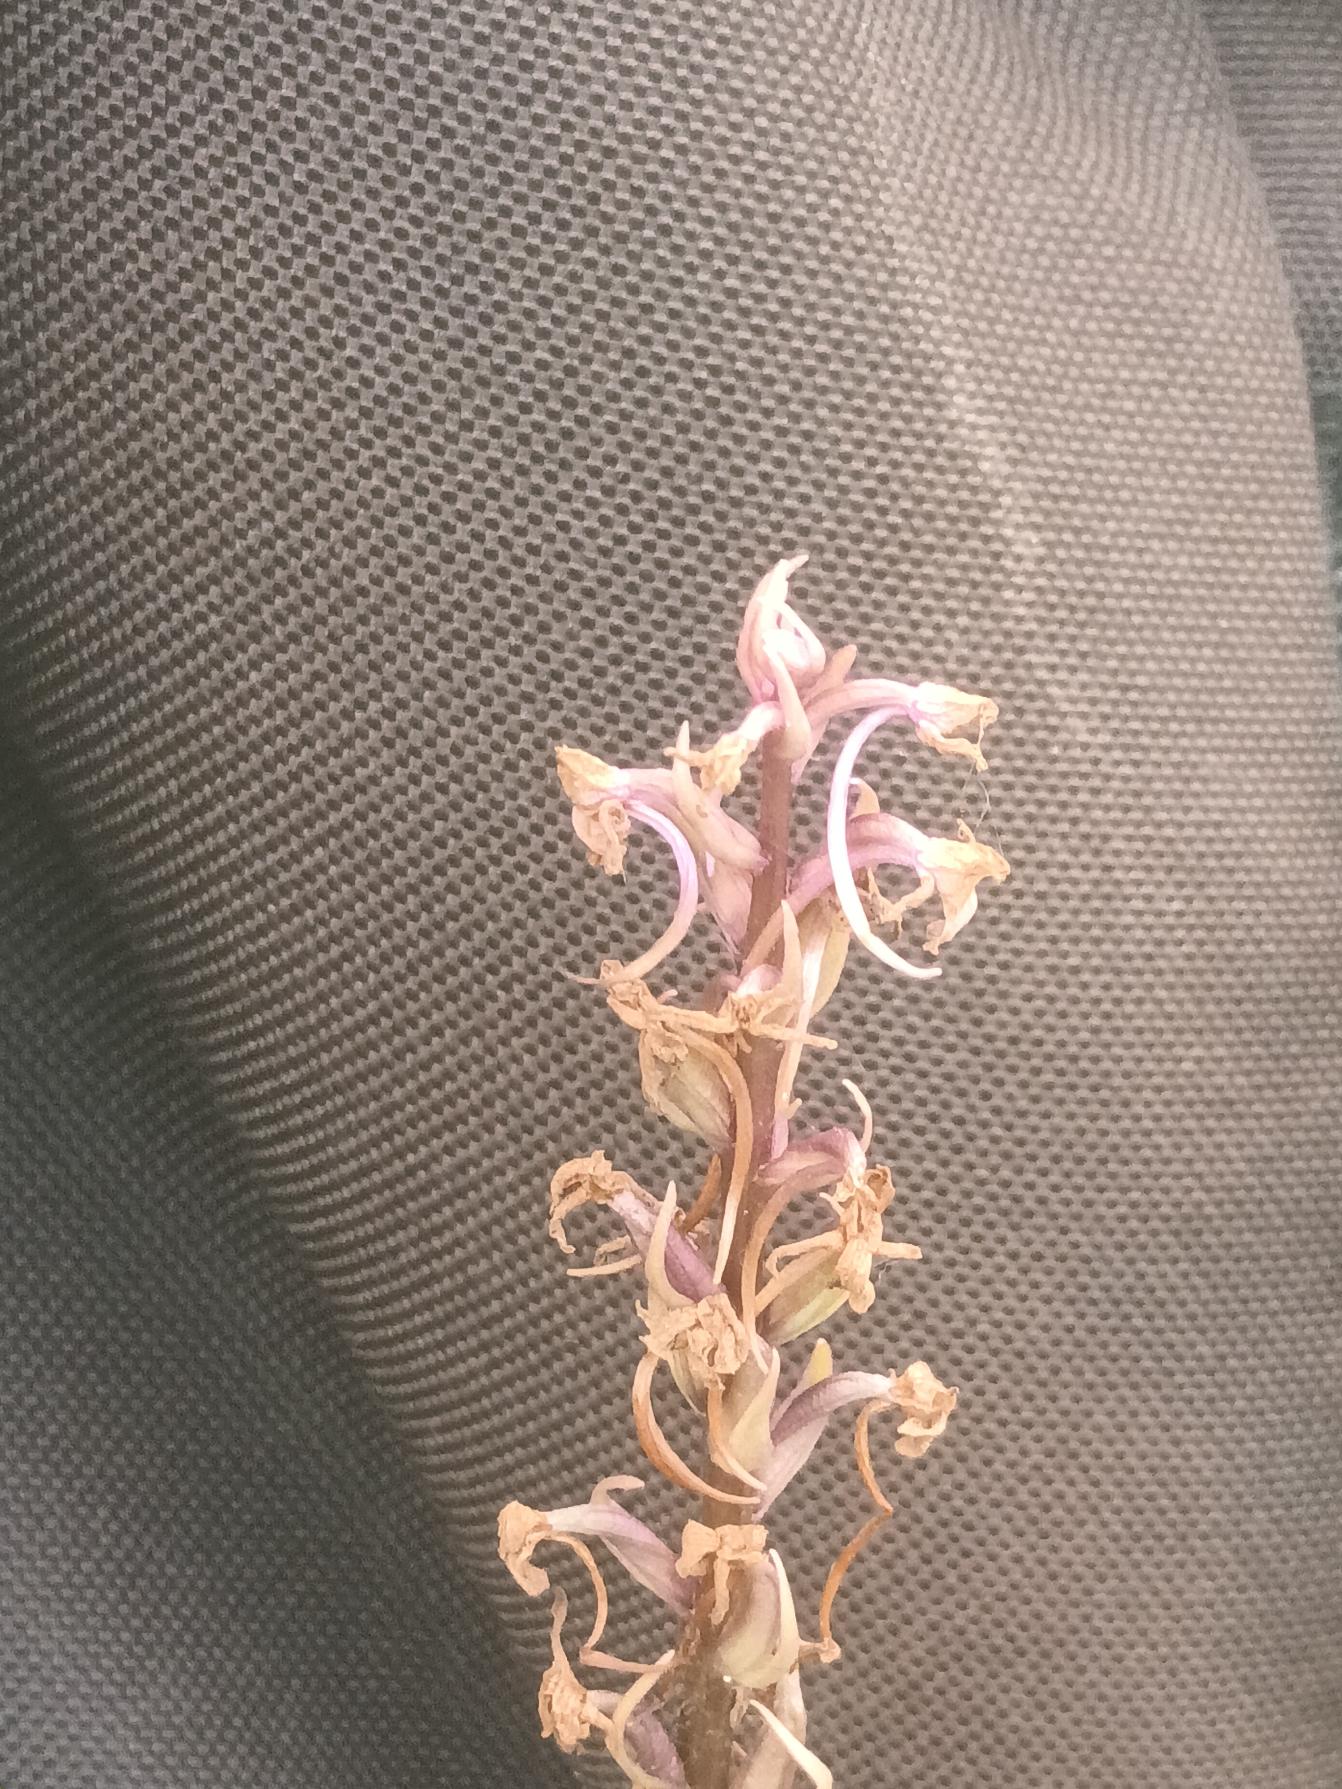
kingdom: Plantae
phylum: Tracheophyta
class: Liliopsida
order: Asparagales
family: Orchidaceae
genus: Gymnadenia
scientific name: Gymnadenia conopsea
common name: Langakset trådspore
